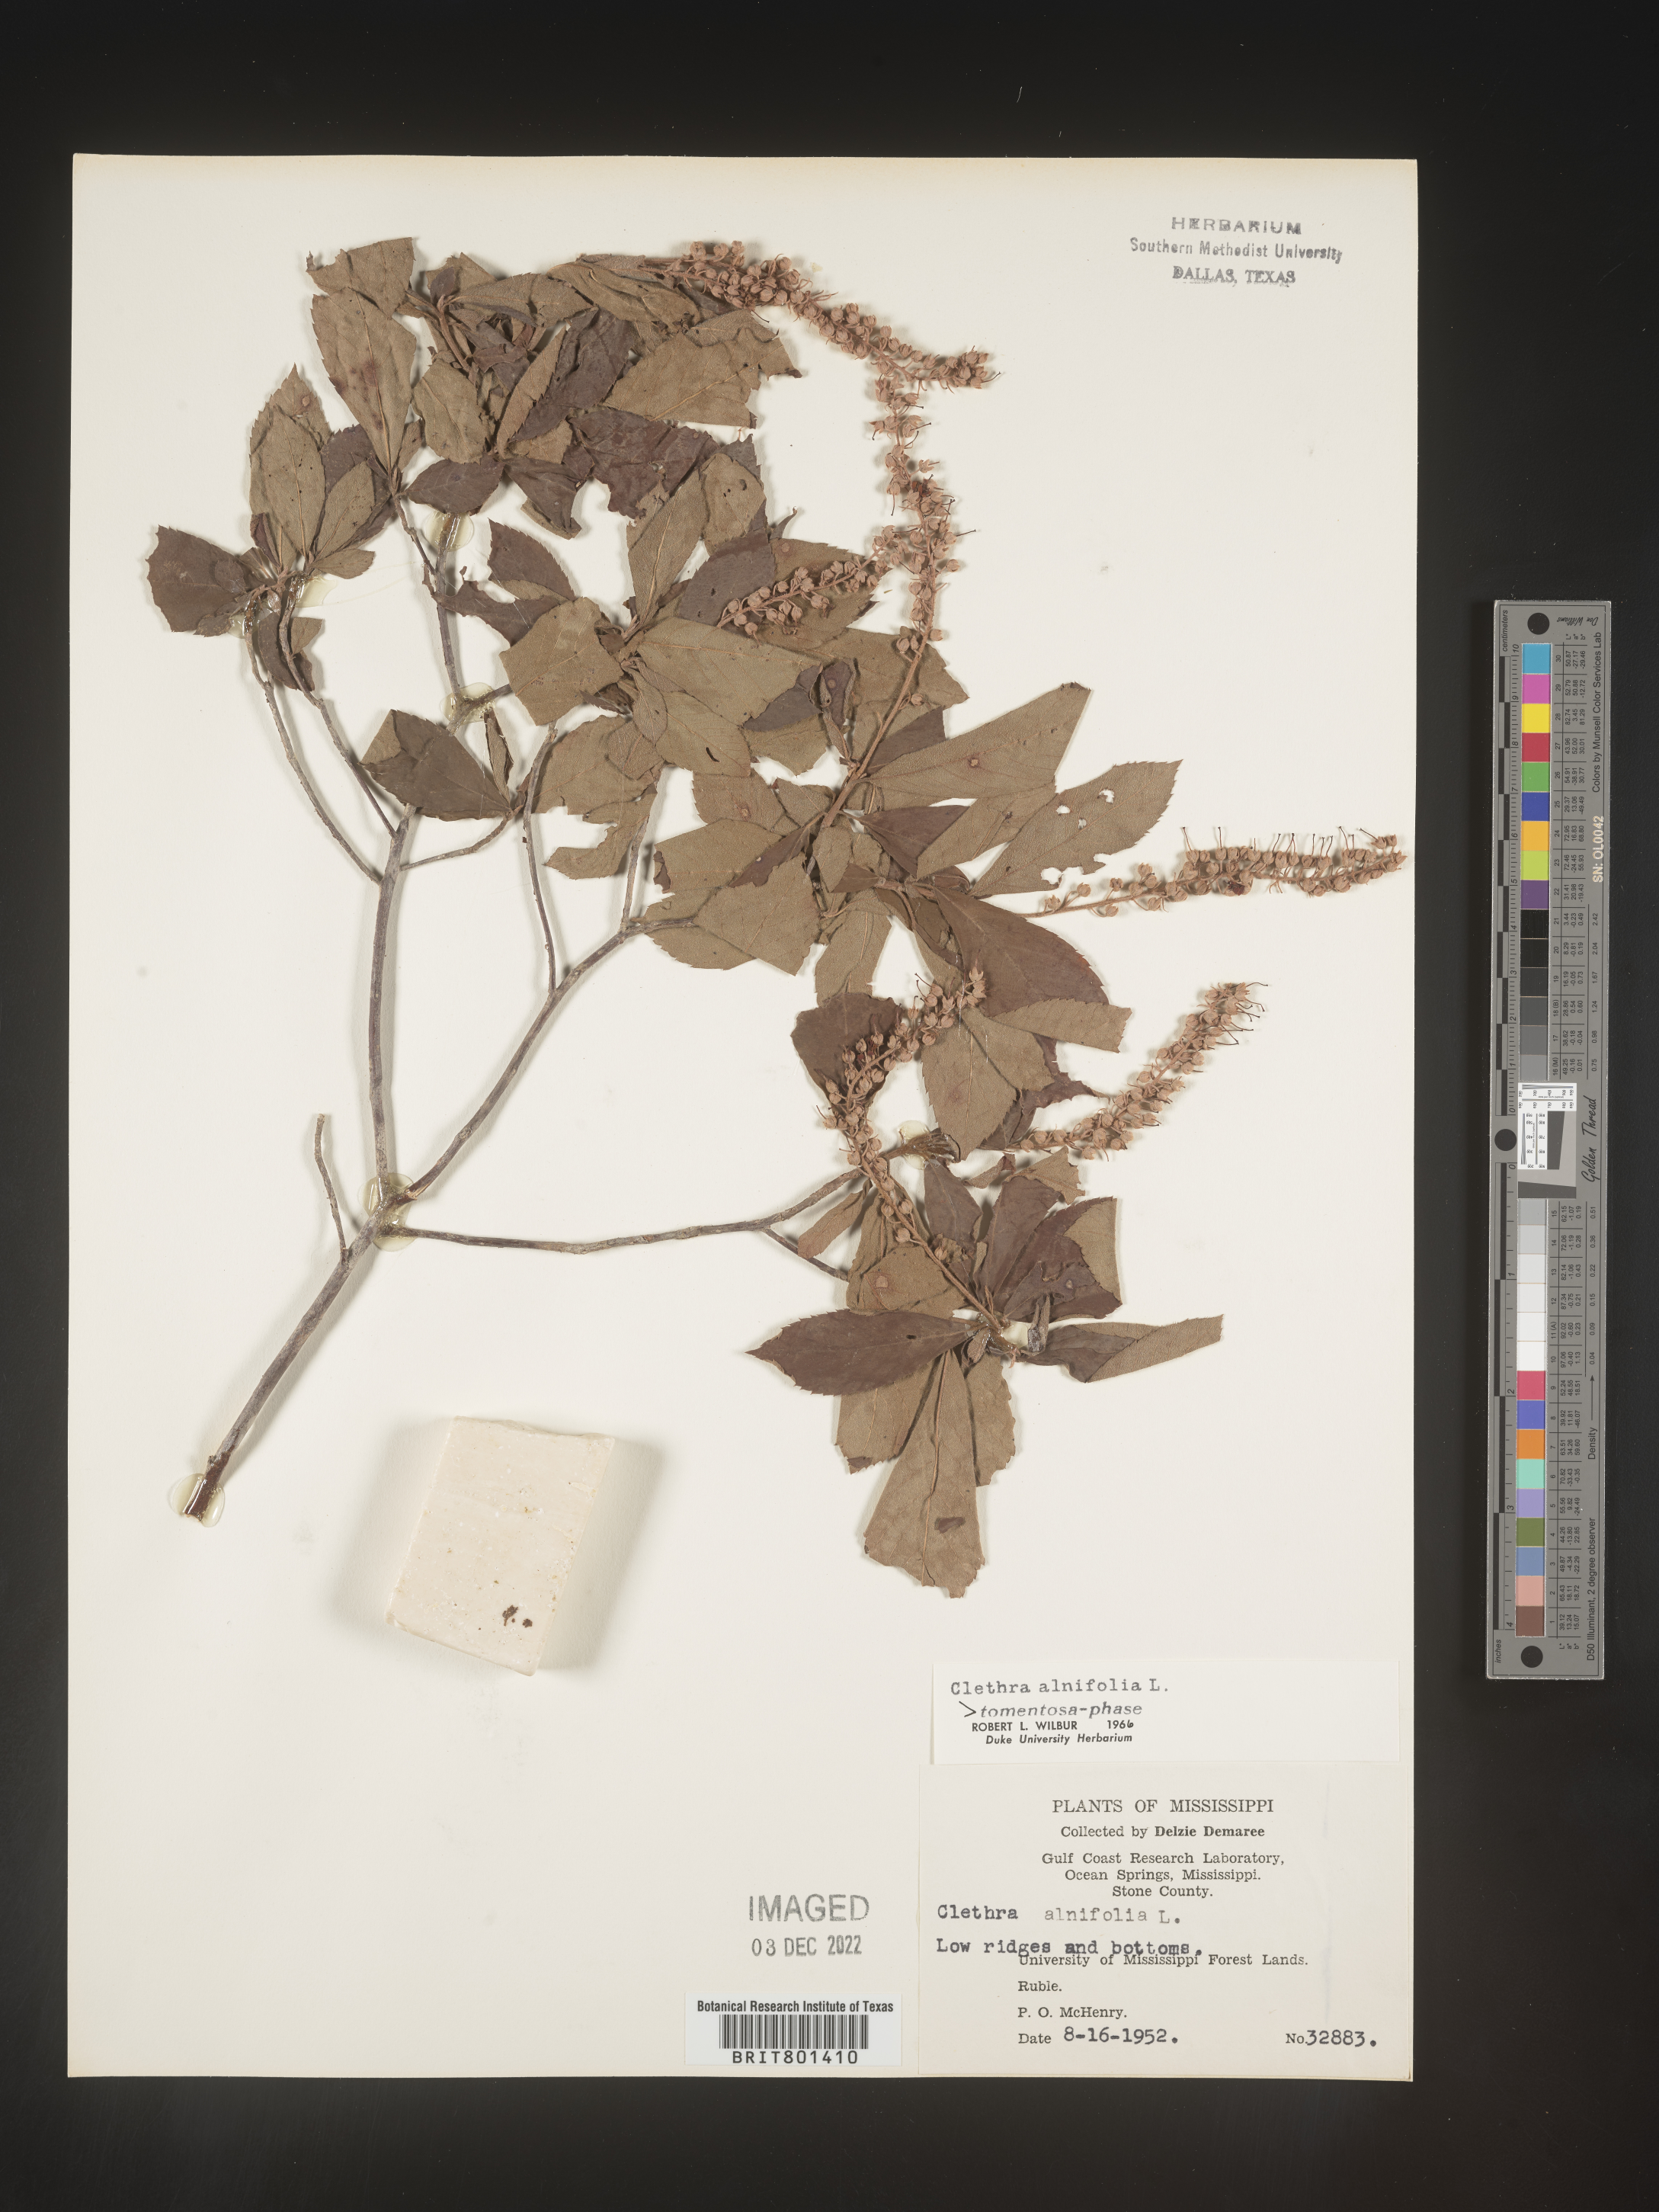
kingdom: Plantae
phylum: Tracheophyta
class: Magnoliopsida
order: Ericales
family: Clethraceae
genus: Clethra
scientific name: Clethra alnifolia
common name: Sweet pepperbush
